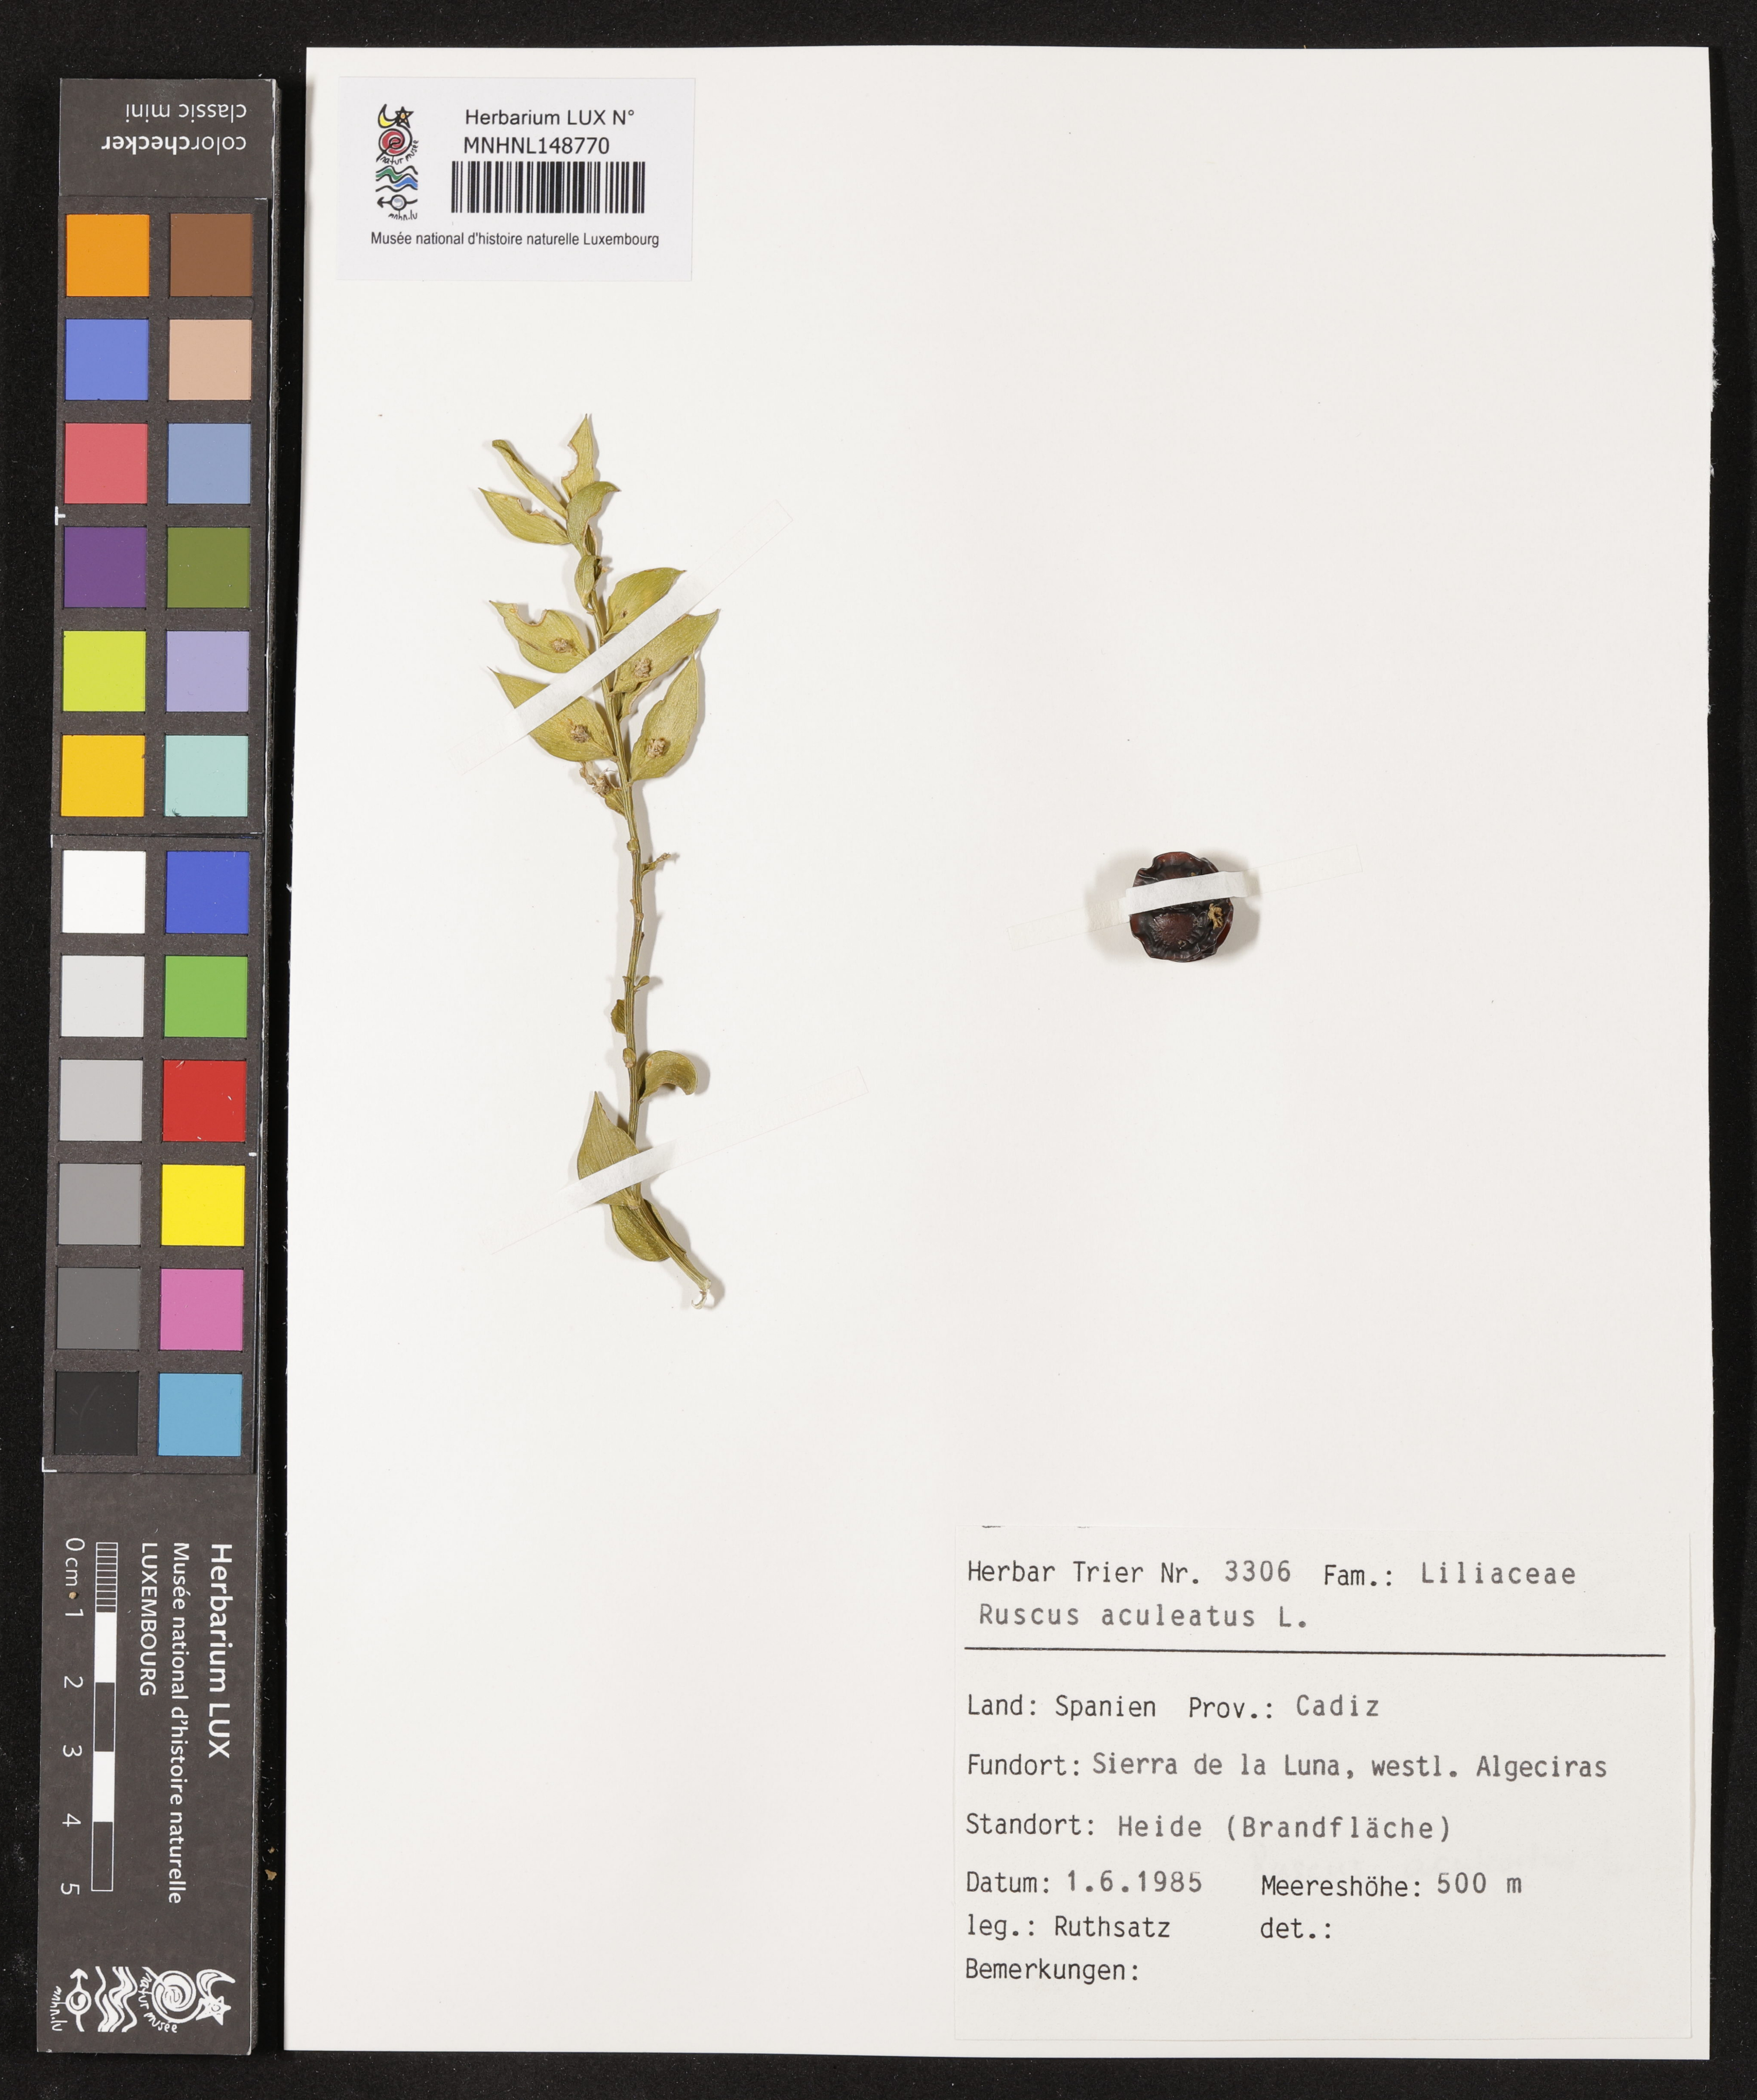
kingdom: Plantae
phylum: Tracheophyta
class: Liliopsida
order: Asparagales
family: Asparagaceae
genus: Ruscus
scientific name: Ruscus aculeatus
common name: Butcher's-broom
